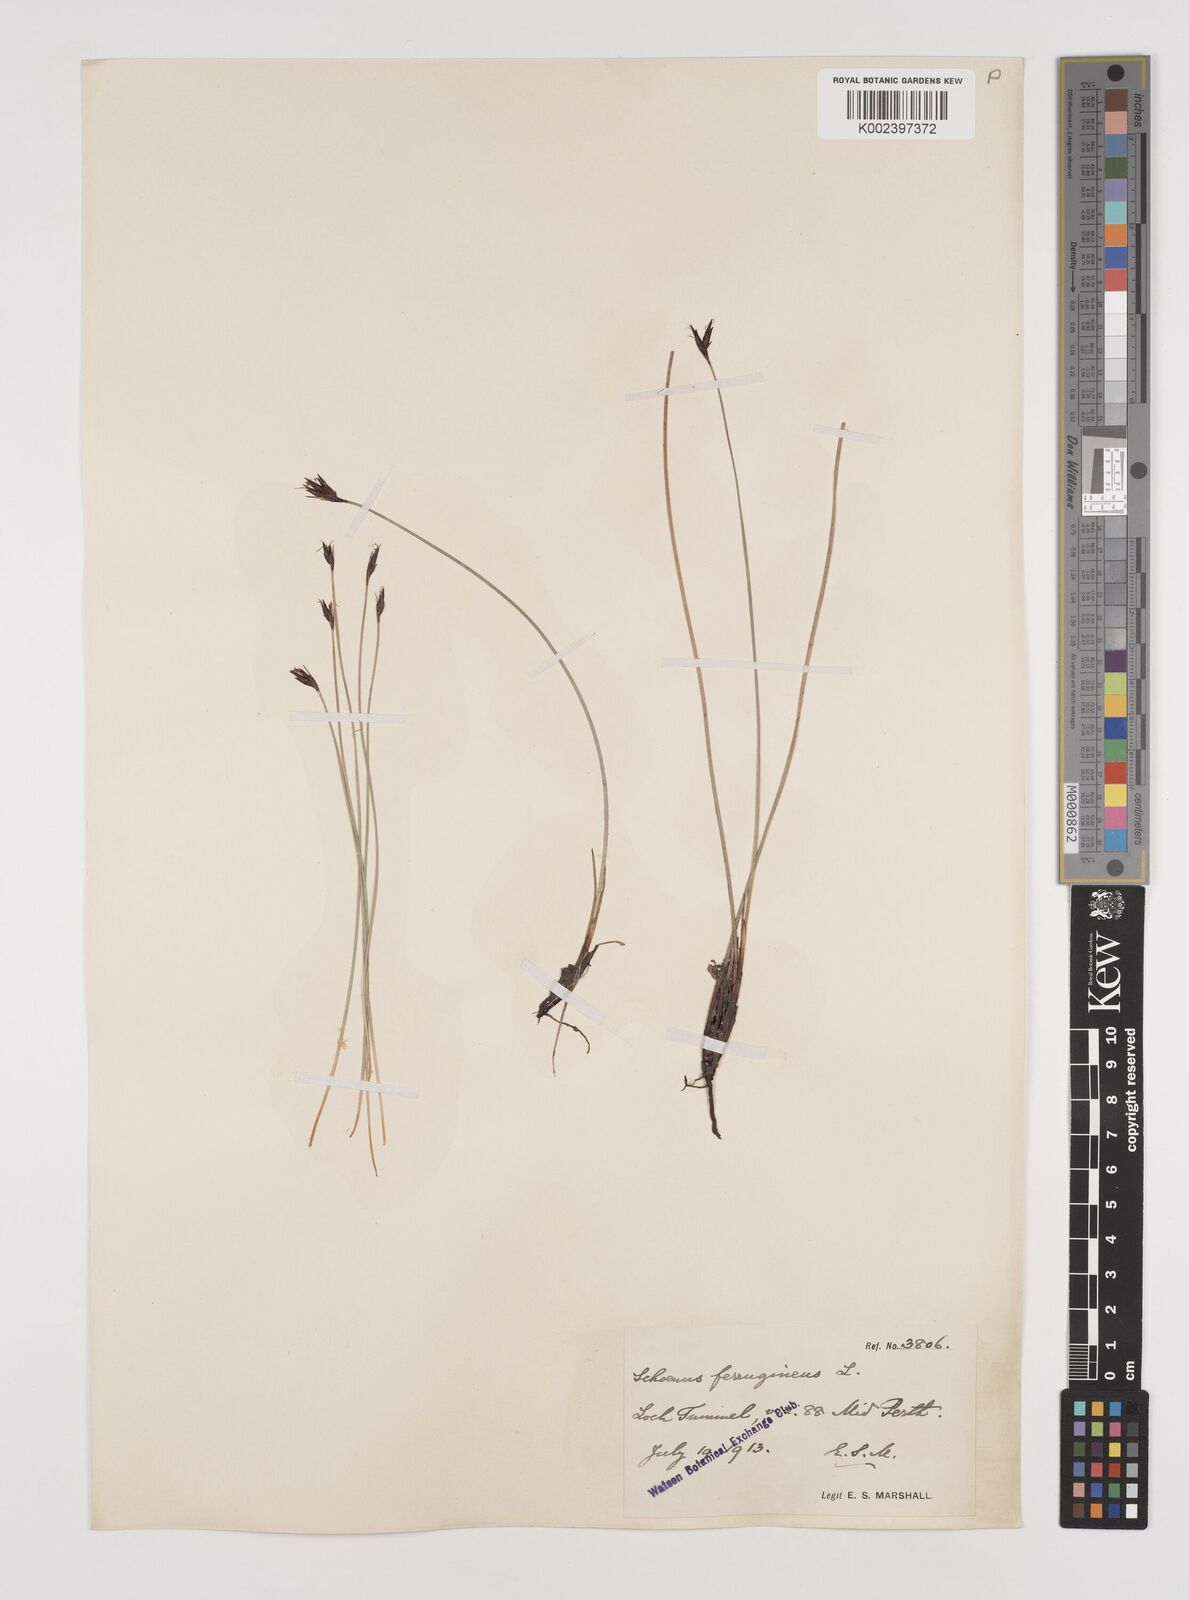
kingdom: Plantae
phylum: Tracheophyta
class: Liliopsida
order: Poales
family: Cyperaceae
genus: Schoenus
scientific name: Schoenus ferrugineus
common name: Brown bog-rush
